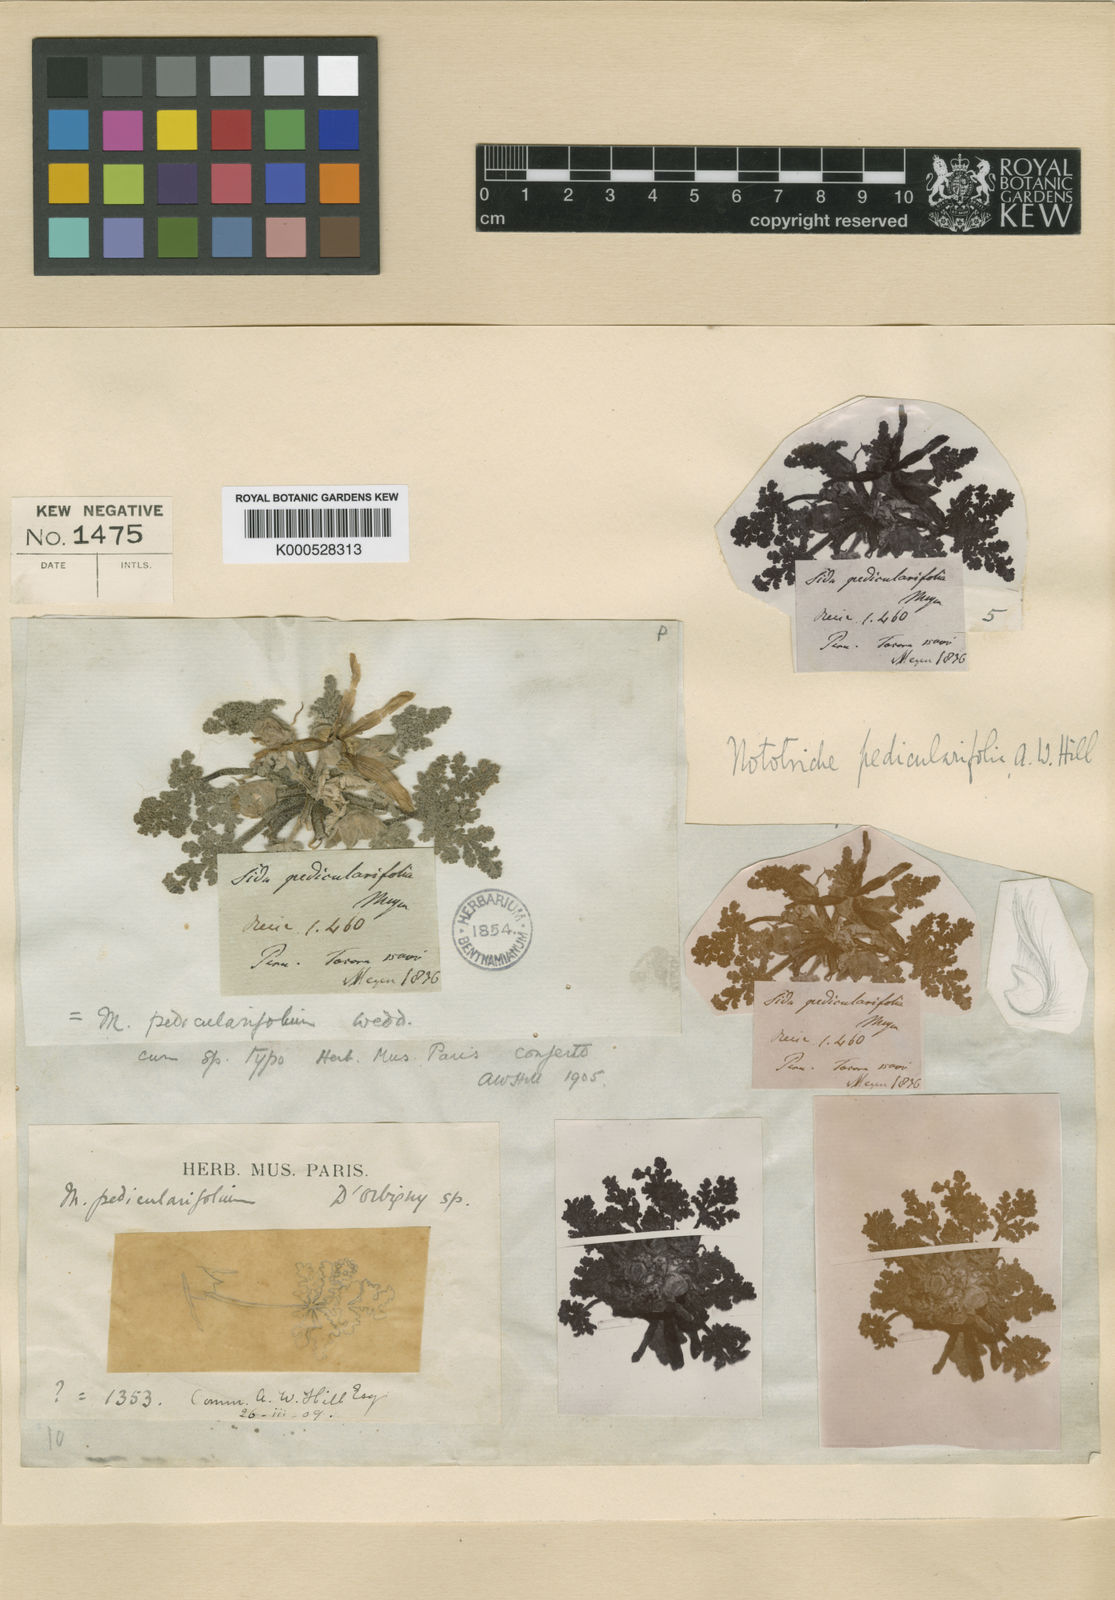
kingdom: Plantae
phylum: Tracheophyta
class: Magnoliopsida
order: Malvales
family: Malvaceae
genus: Nototriche
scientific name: Nototriche pediculariifolia
